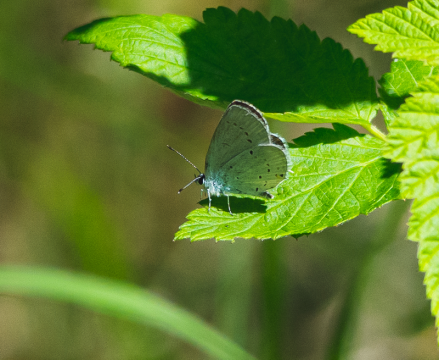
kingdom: Animalia
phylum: Arthropoda
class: Insecta
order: Lepidoptera
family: Lycaenidae
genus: Elkalyce
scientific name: Elkalyce amyntula
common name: Western Tailed-Blue
